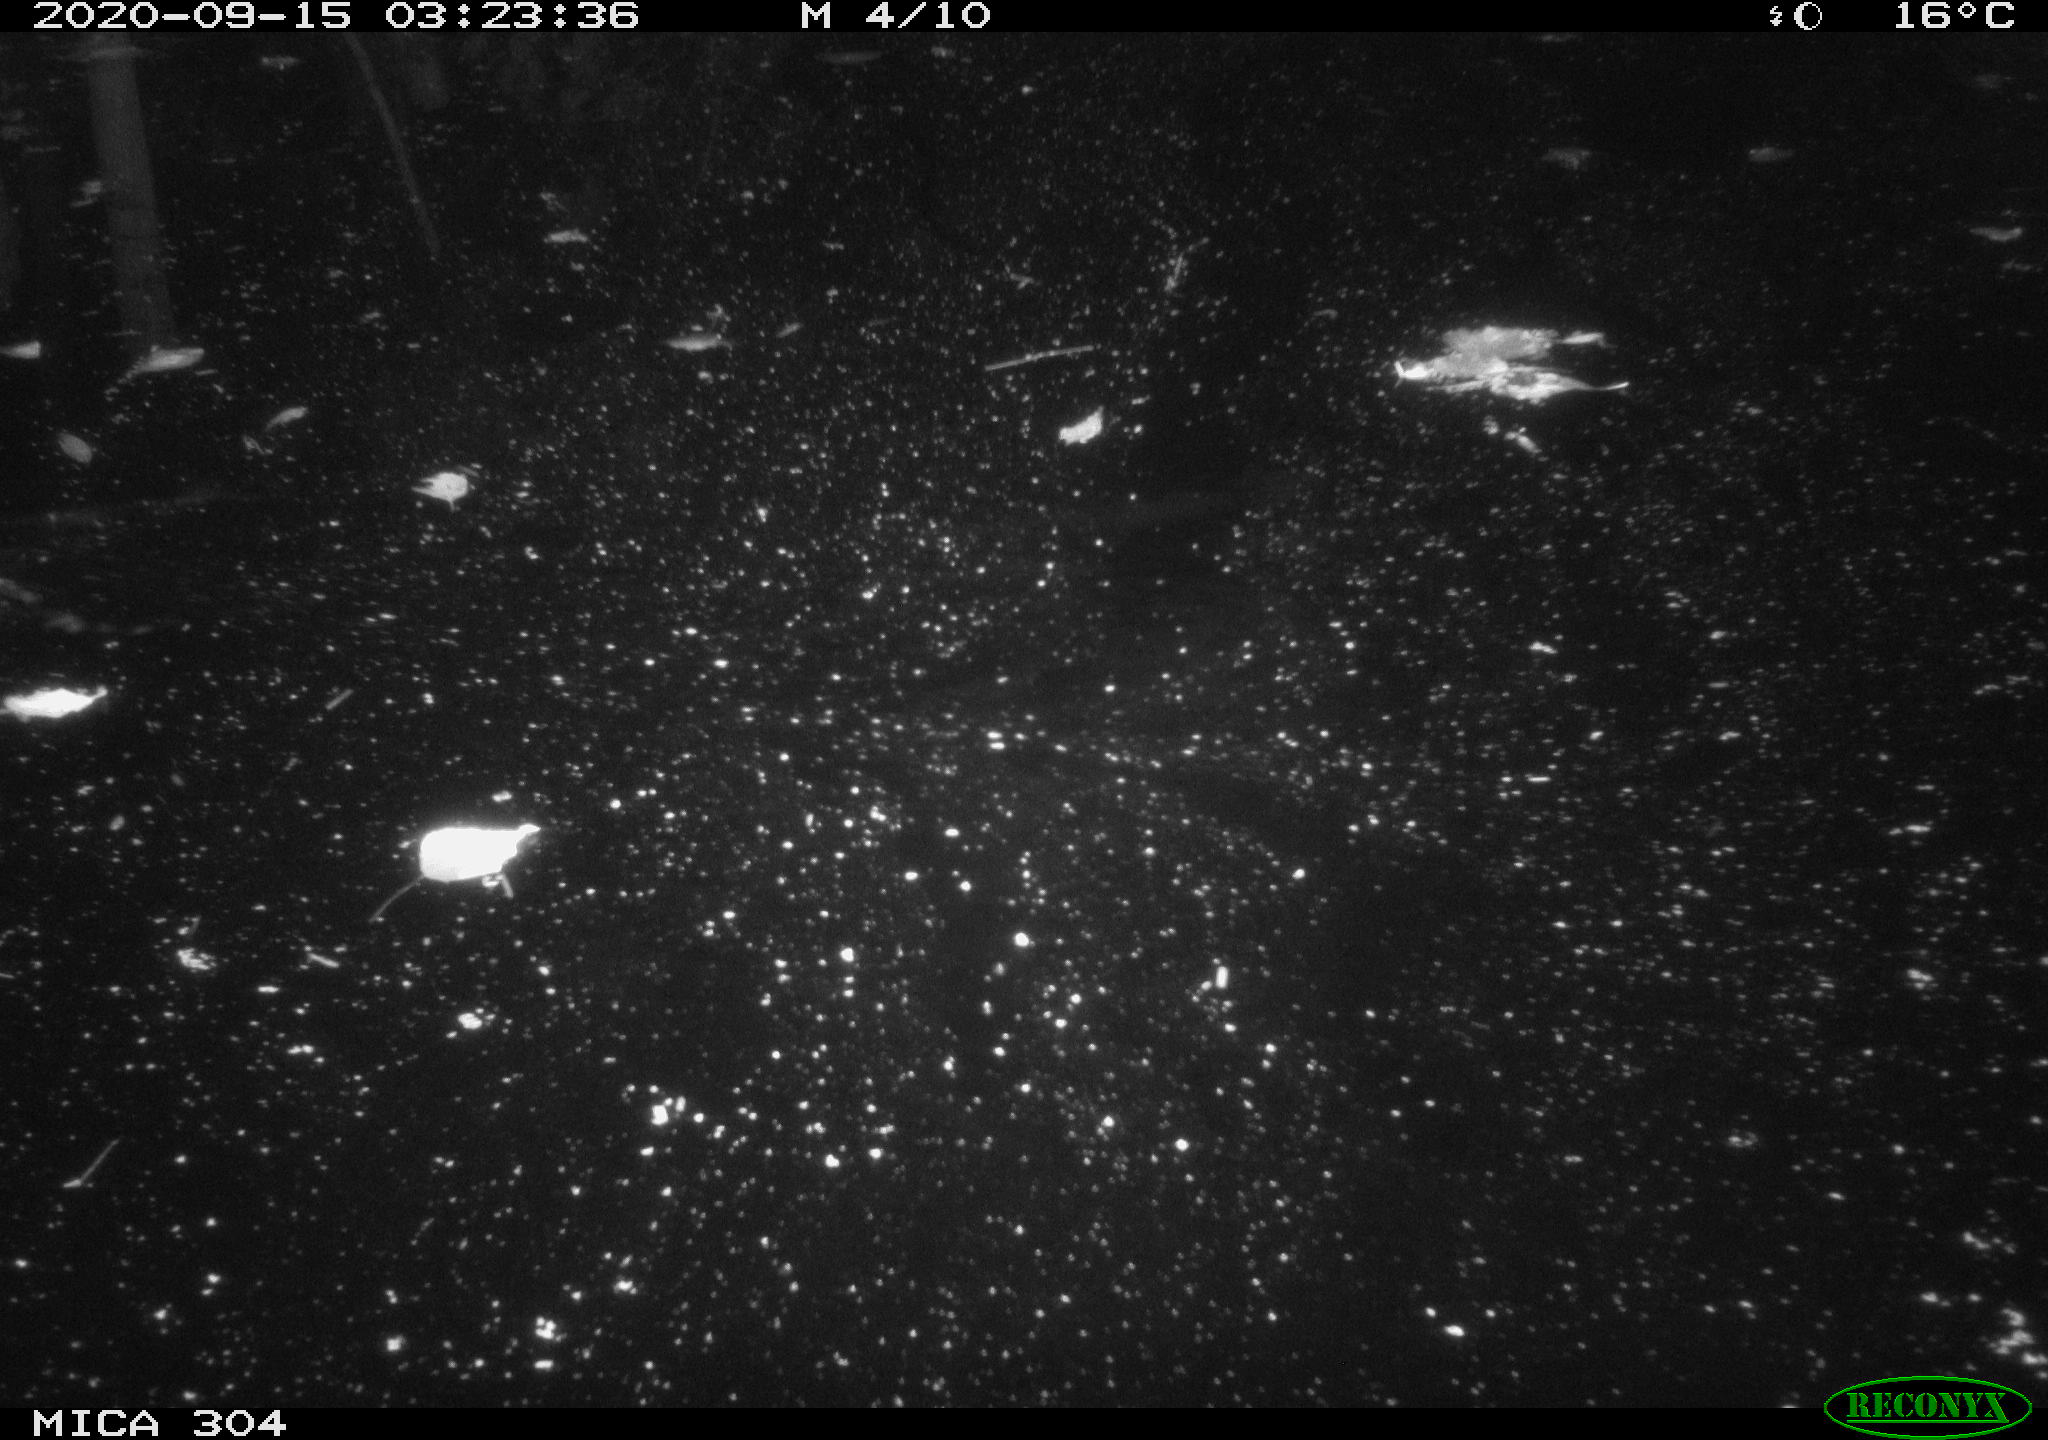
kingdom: Animalia
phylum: Chordata
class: Mammalia
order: Rodentia
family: Muridae
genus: Rattus
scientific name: Rattus norvegicus
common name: Brown rat
